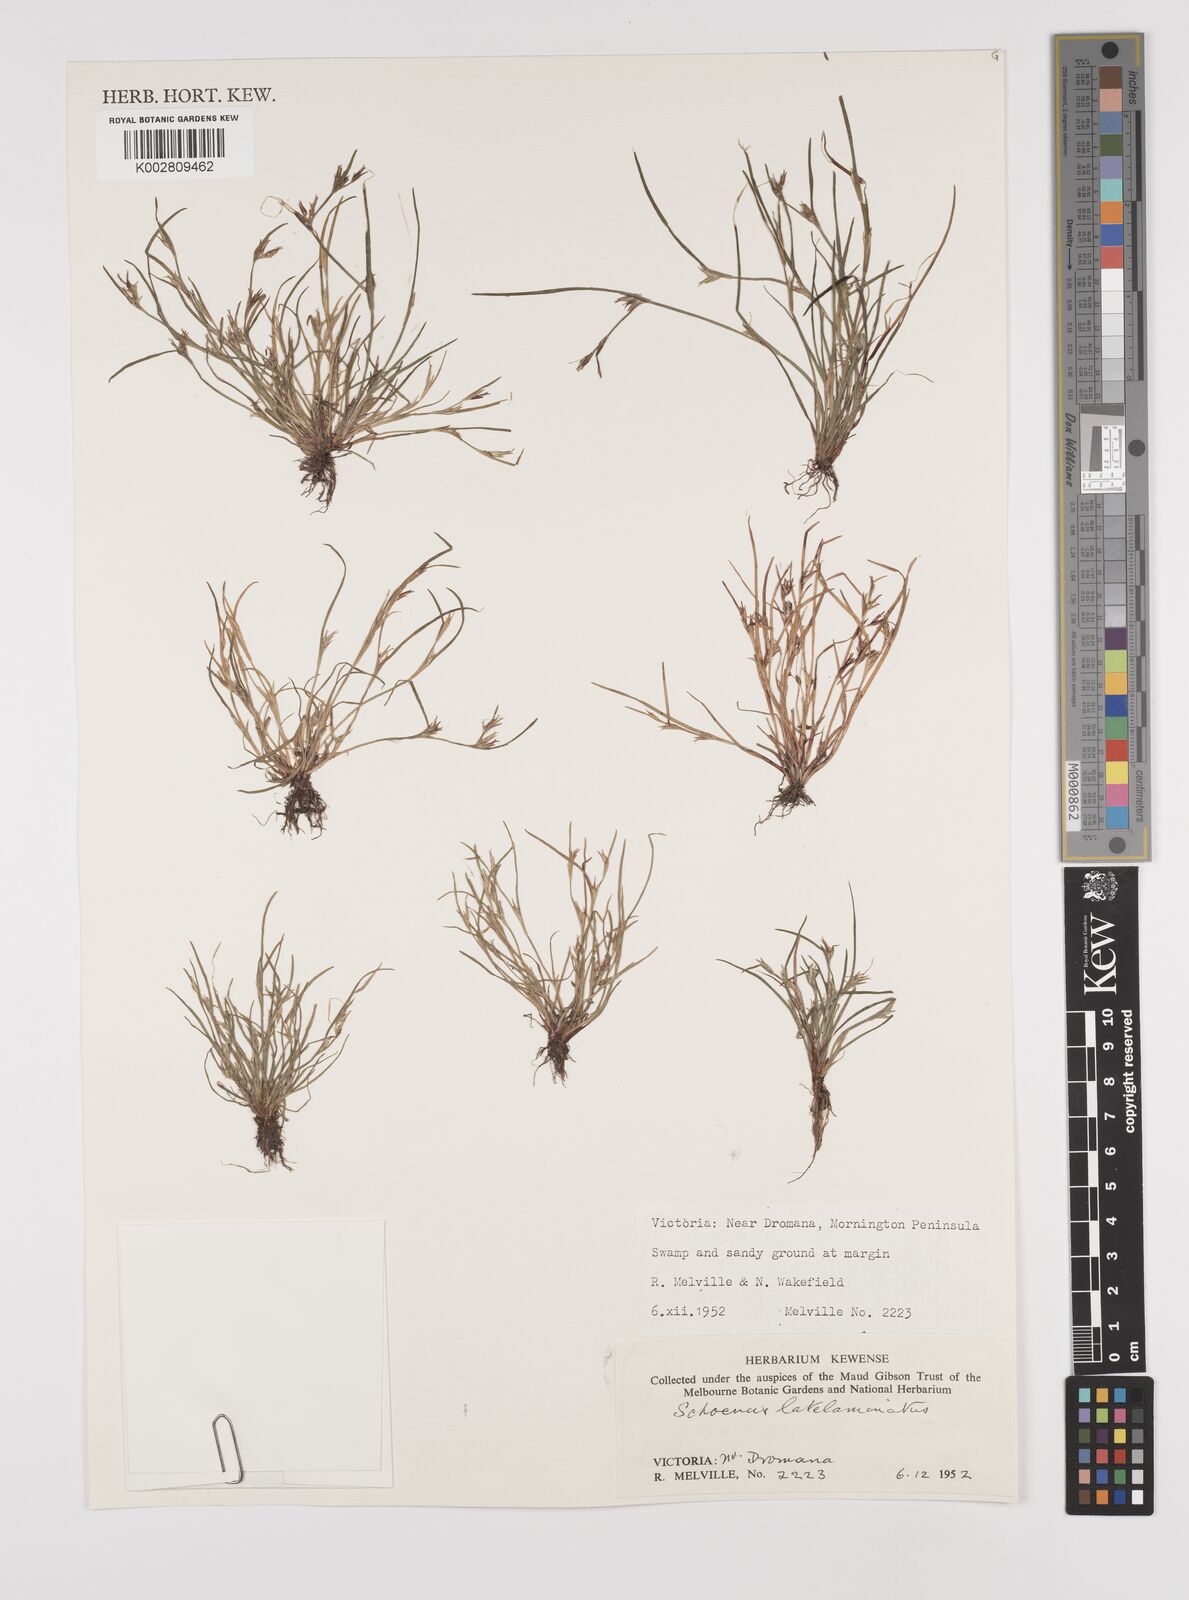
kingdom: Plantae
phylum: Tracheophyta
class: Liliopsida
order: Poales
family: Cyperaceae
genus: Schoenus
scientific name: Schoenus latelaminatus
